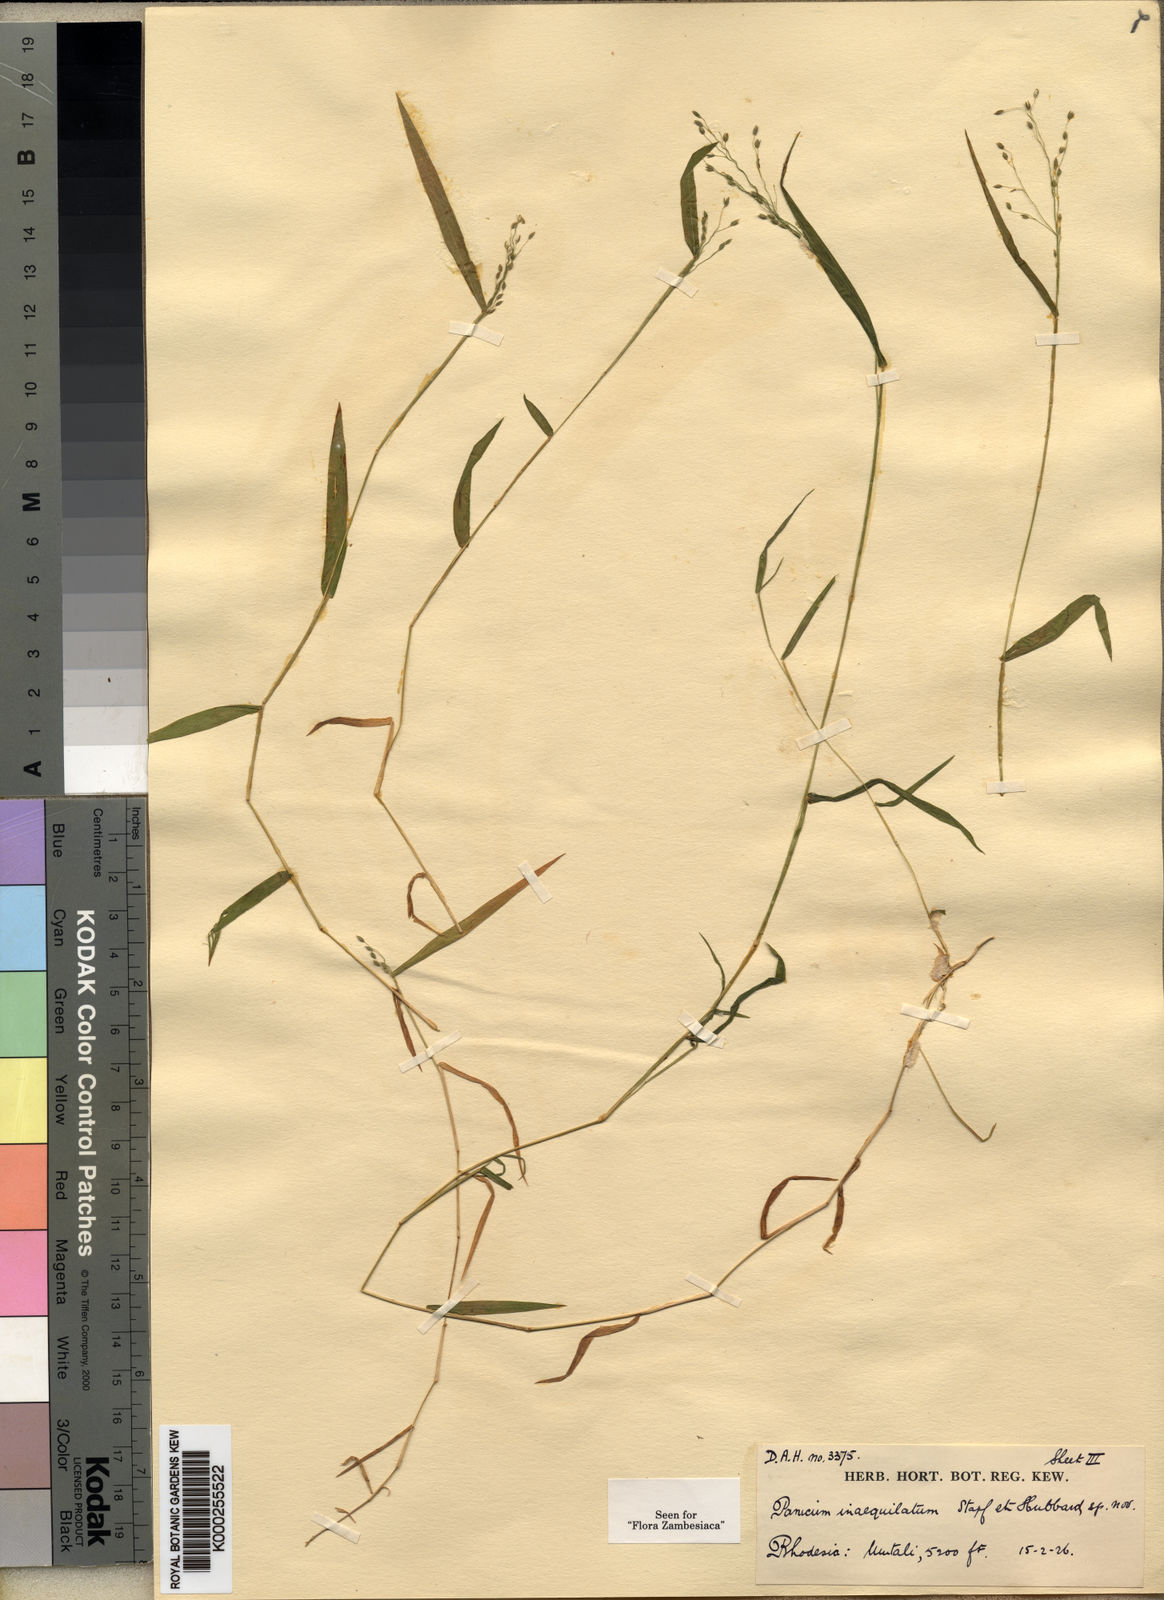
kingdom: Plantae
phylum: Tracheophyta
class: Liliopsida
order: Poales
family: Poaceae
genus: Panicum
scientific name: Panicum inaequilatum
